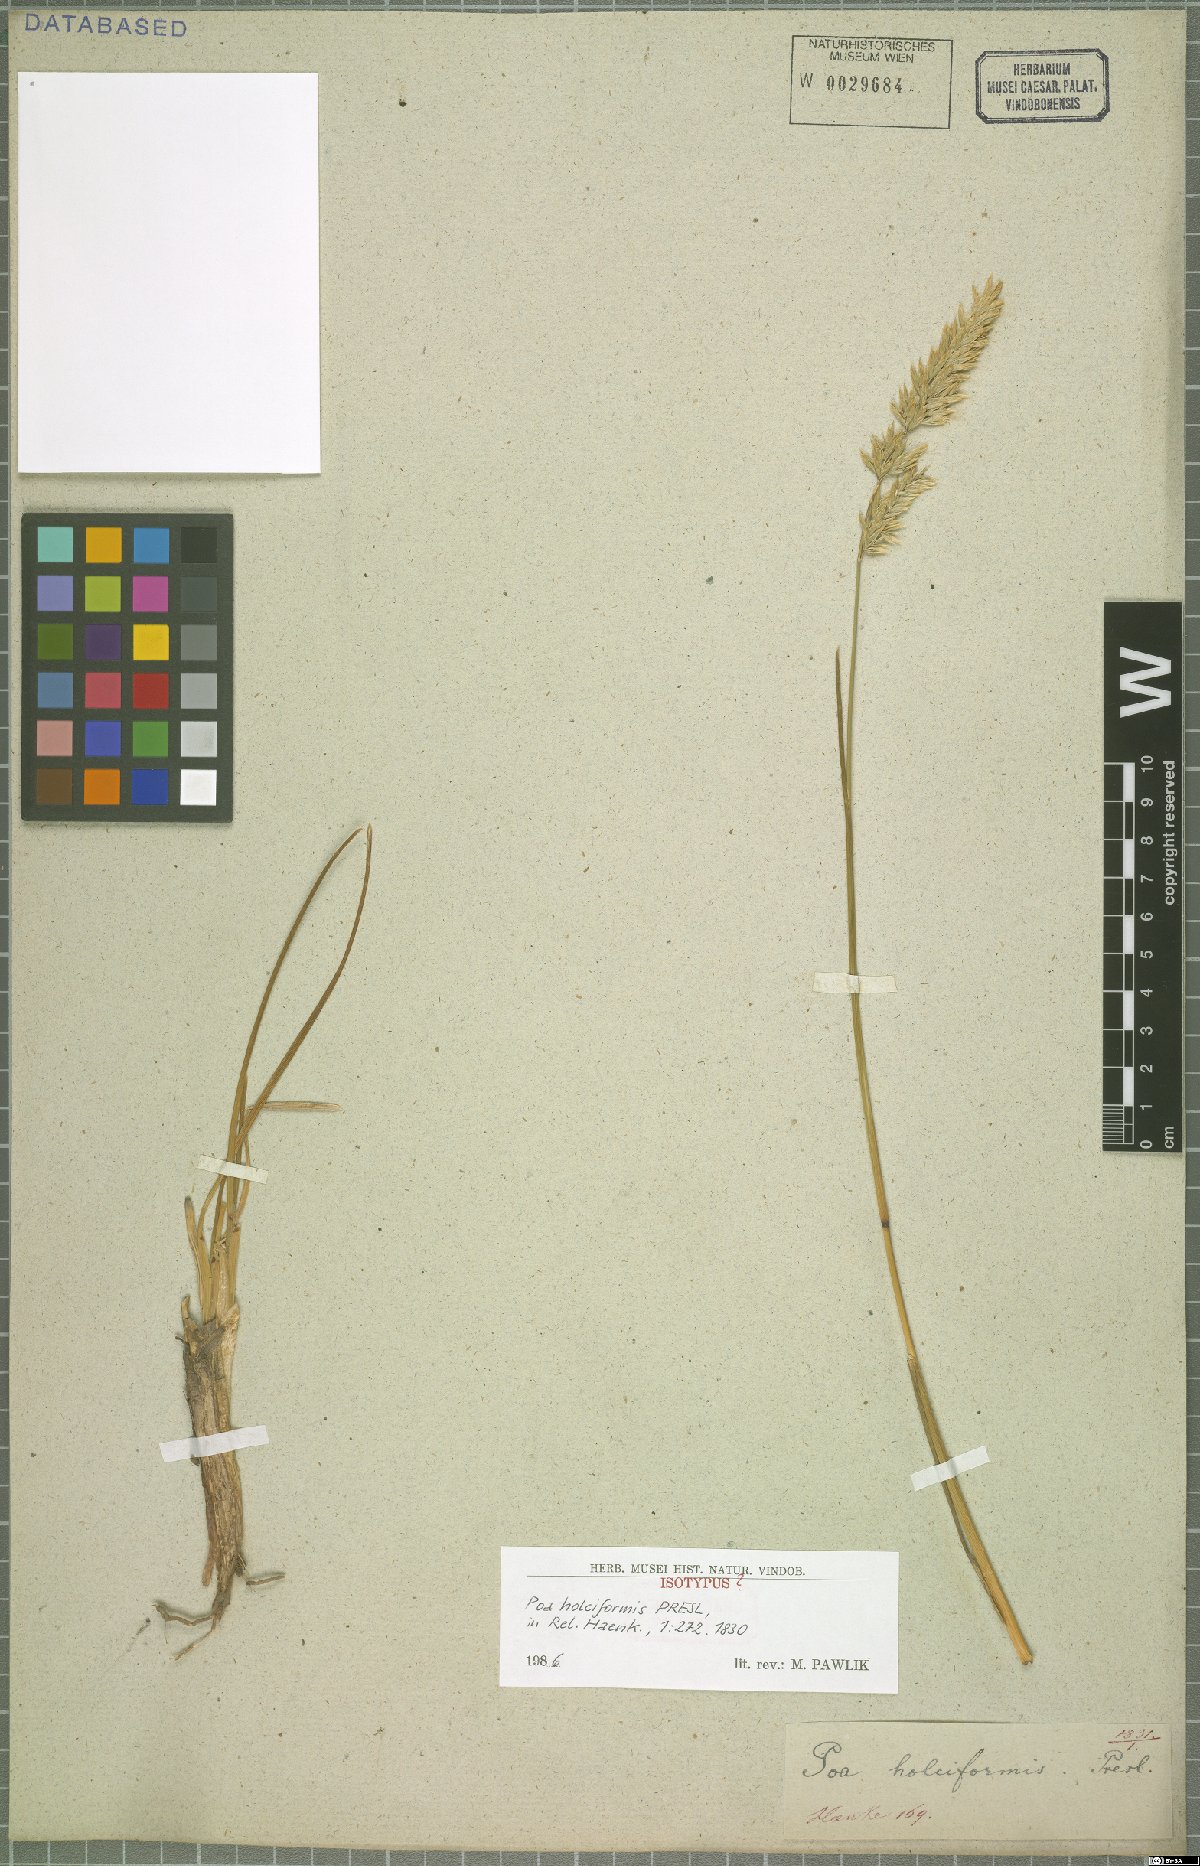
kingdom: Plantae
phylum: Tracheophyta
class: Liliopsida
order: Poales
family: Poaceae
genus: Poa
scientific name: Poa holciformis
